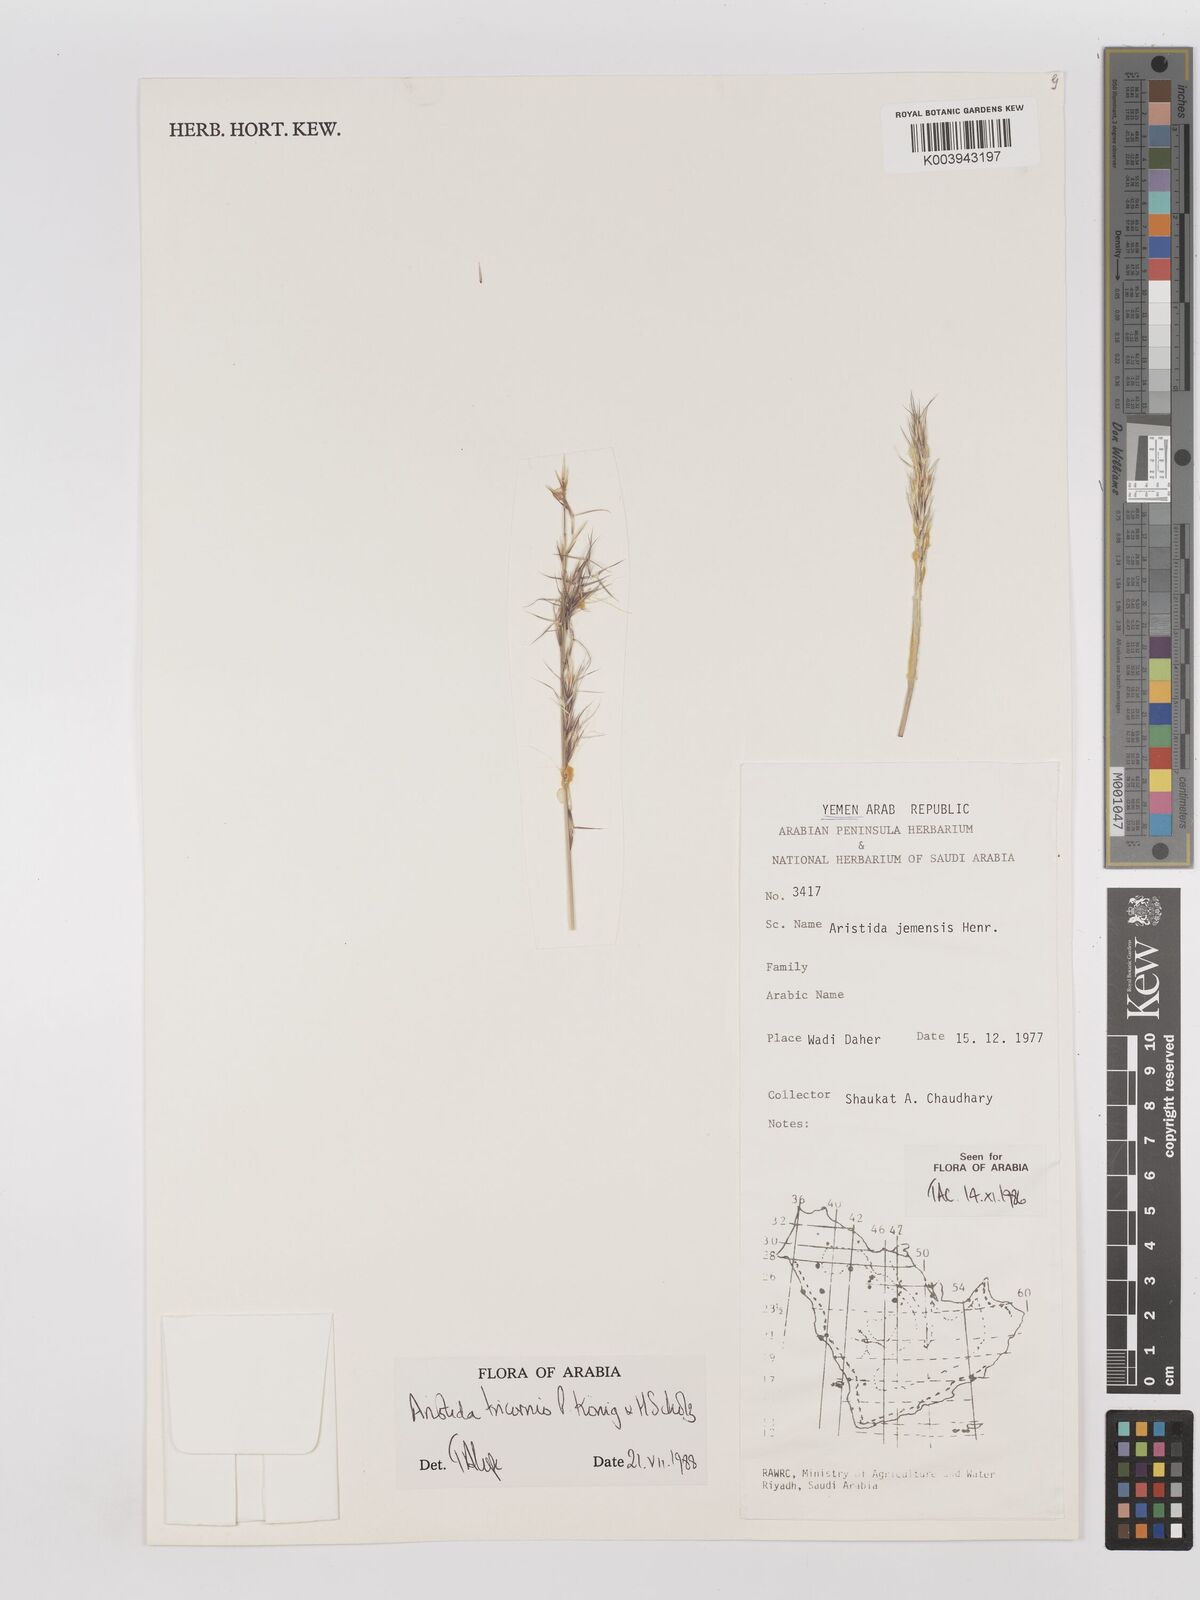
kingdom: Plantae
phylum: Tracheophyta
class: Liliopsida
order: Poales
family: Poaceae
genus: Aristida
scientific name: Aristida tricornis
